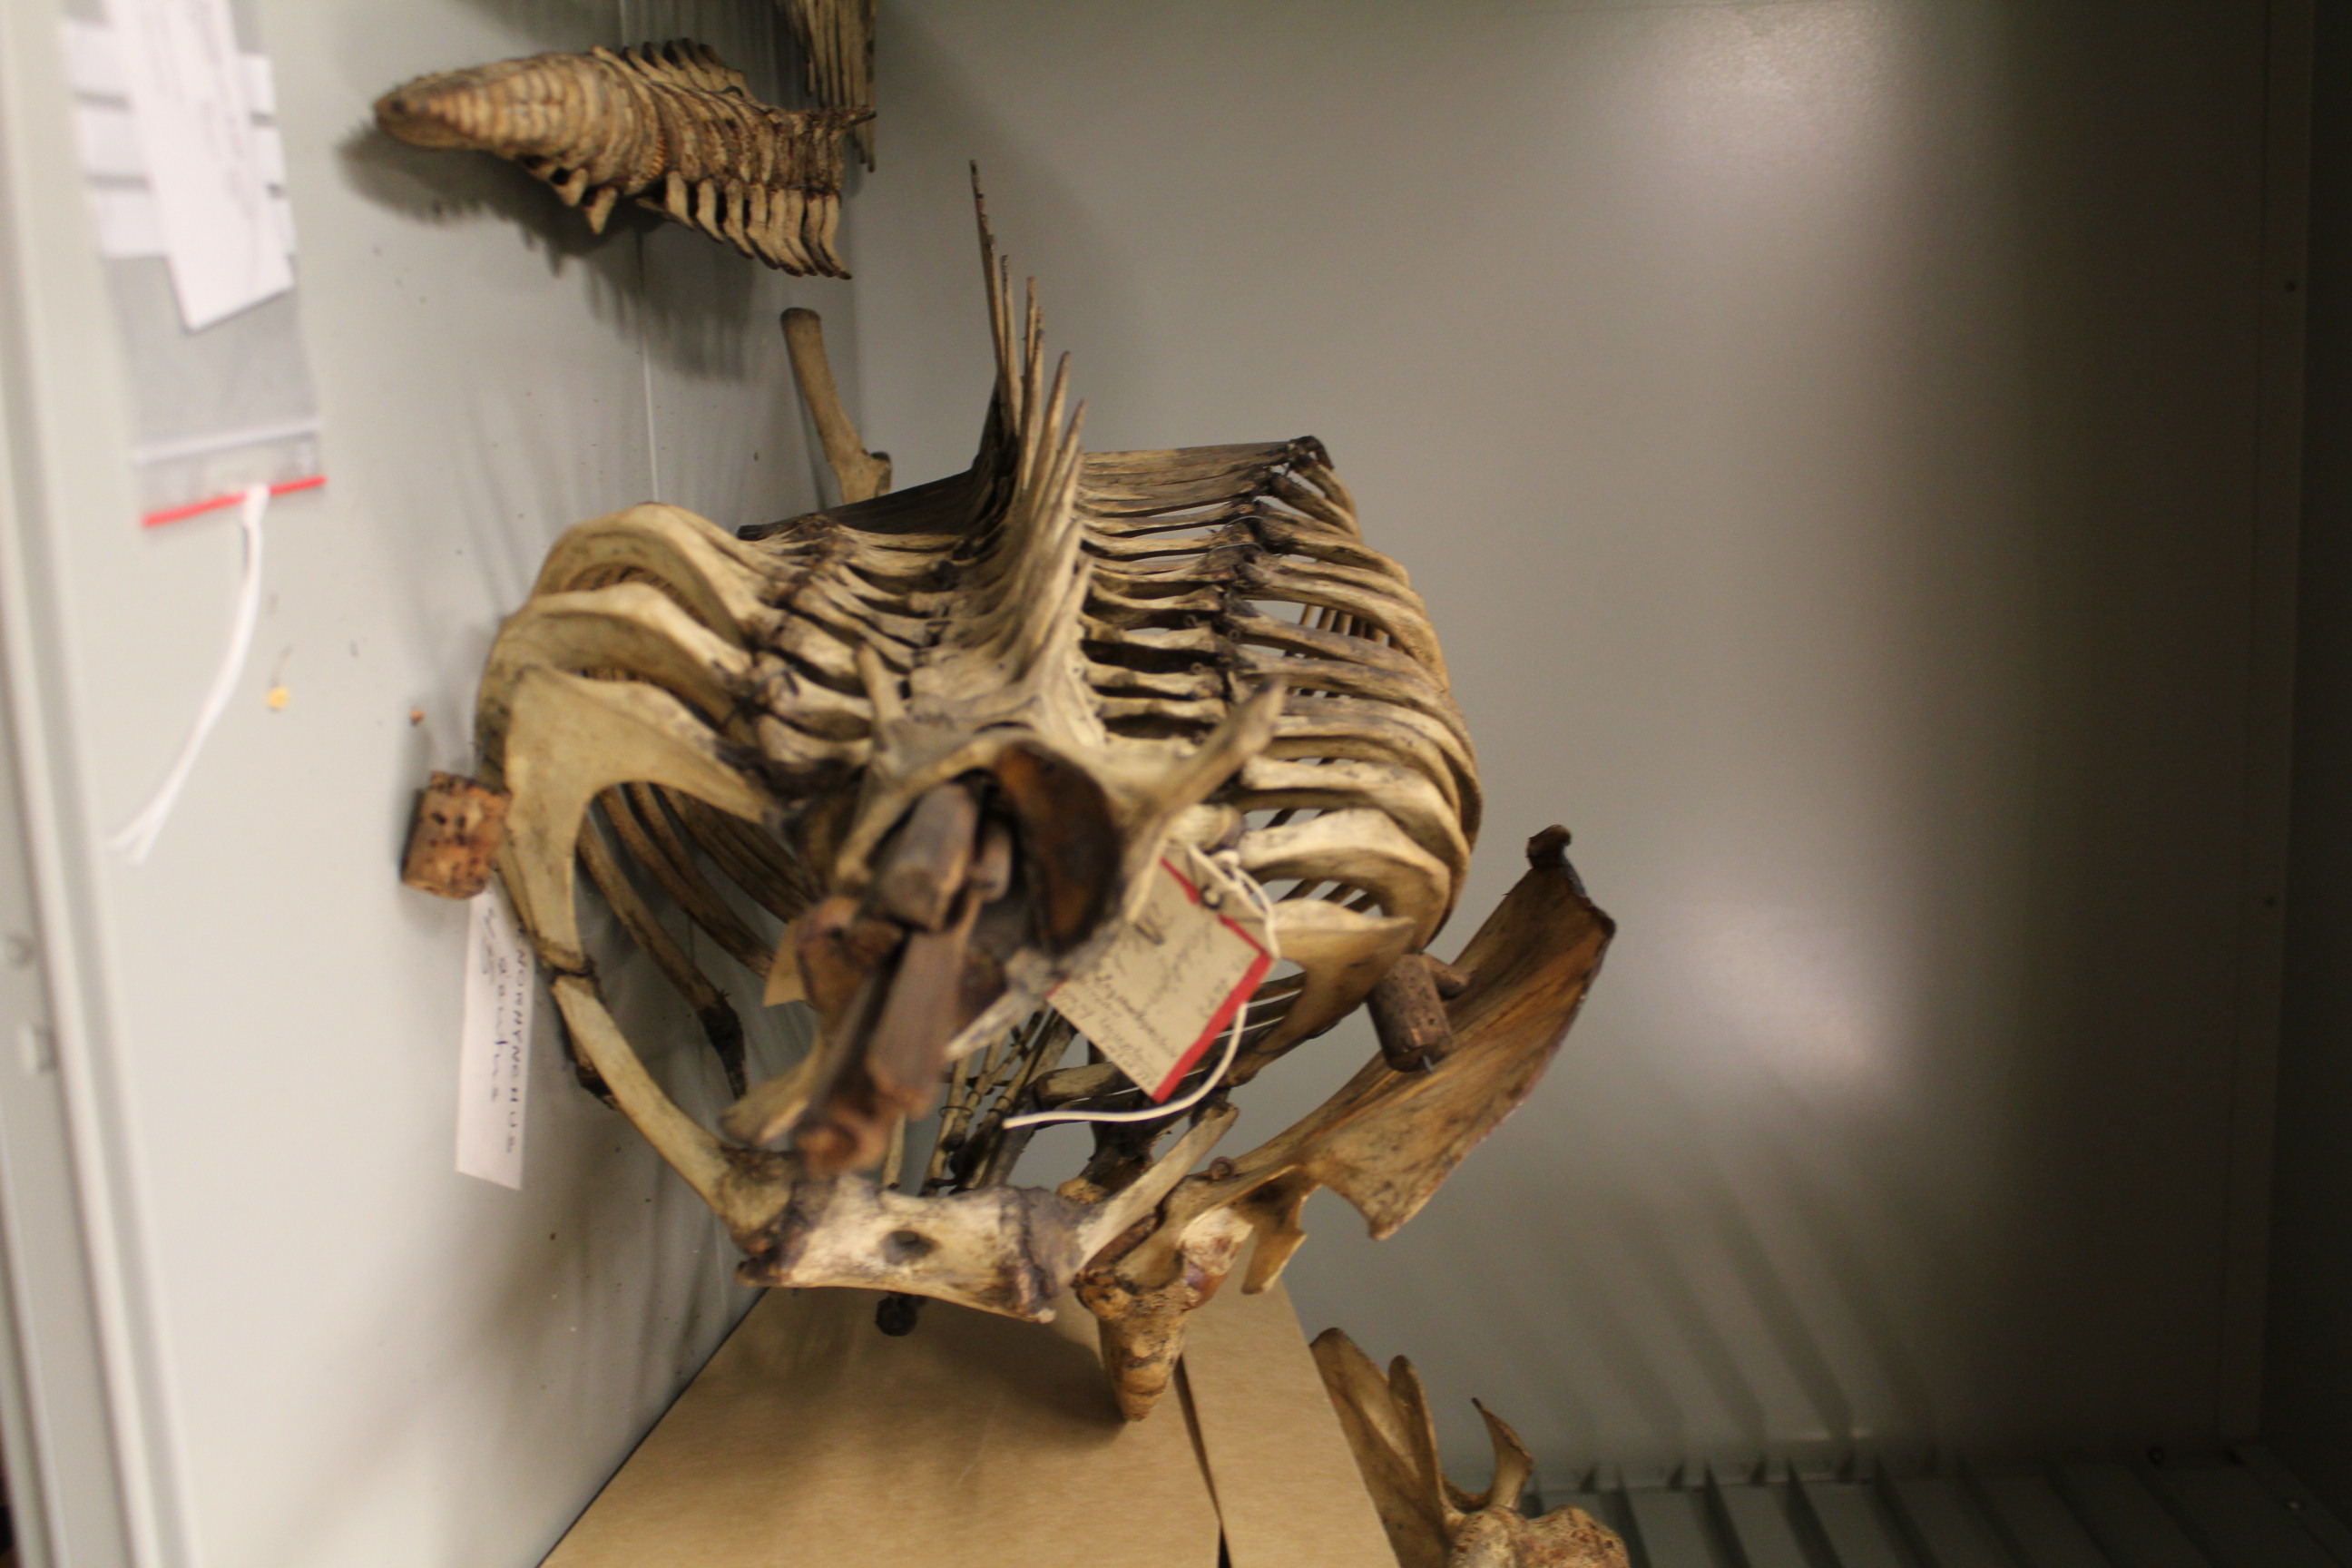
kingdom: Animalia
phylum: Chordata
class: Mammalia
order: Cetacea
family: Delphinidae
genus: Lagenorhynchus
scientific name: Lagenorhynchus acutus
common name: Atlantic white-sided dolphin
